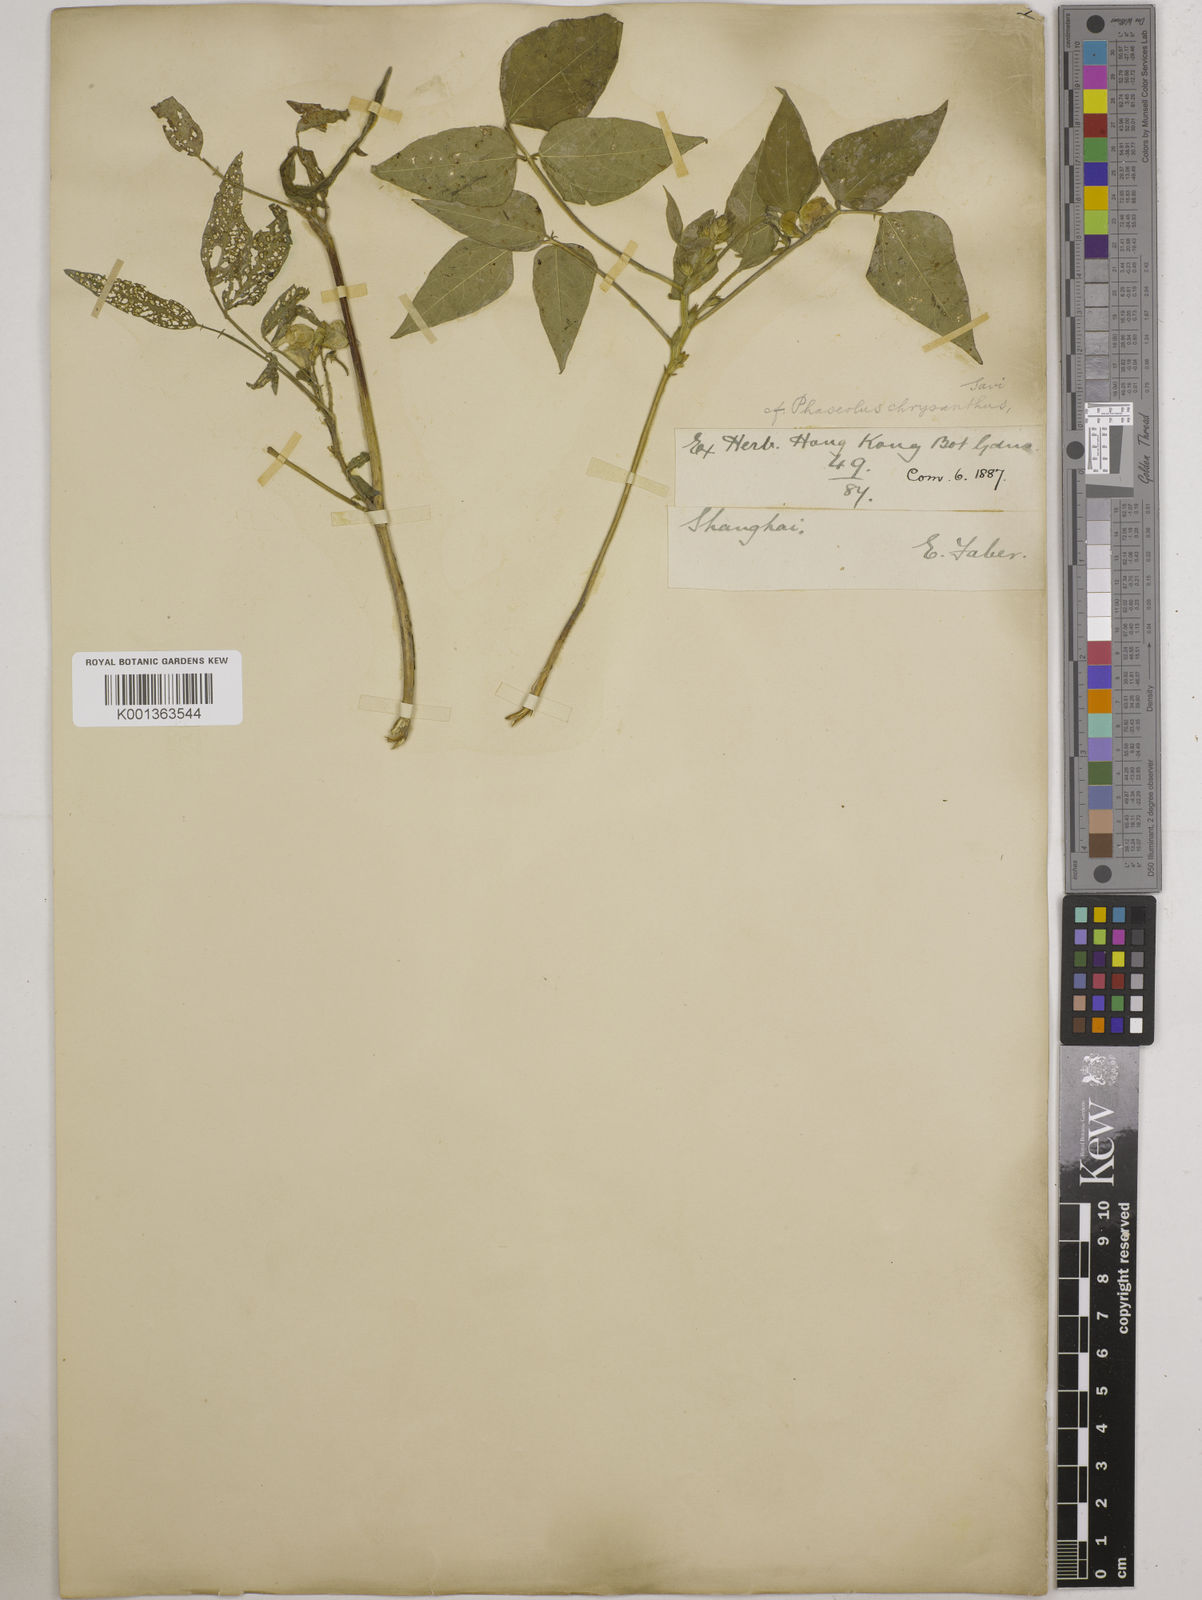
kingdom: Plantae
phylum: Tracheophyta
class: Magnoliopsida
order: Fabales
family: Fabaceae
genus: Vigna
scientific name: Vigna umbellata
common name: Oriental-bean
